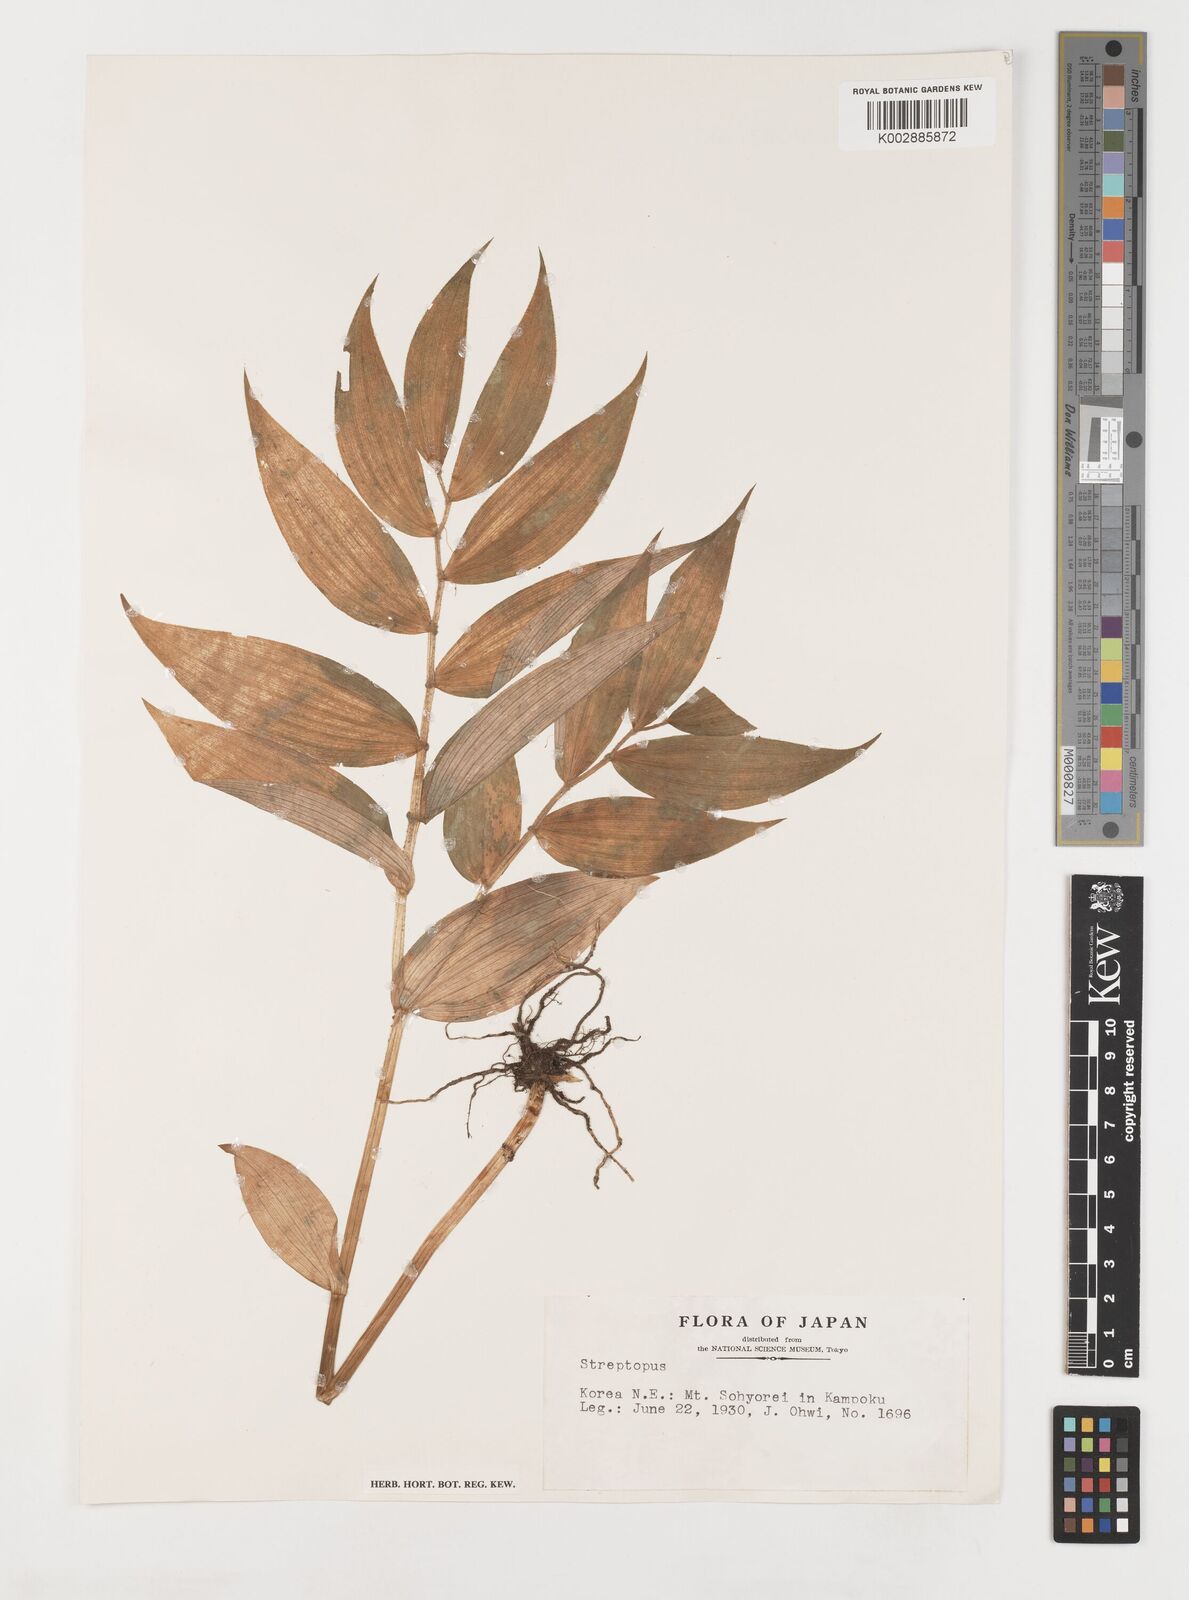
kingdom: Plantae
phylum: Tracheophyta
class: Liliopsida
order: Liliales
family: Liliaceae
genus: Streptopus
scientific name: Streptopus
